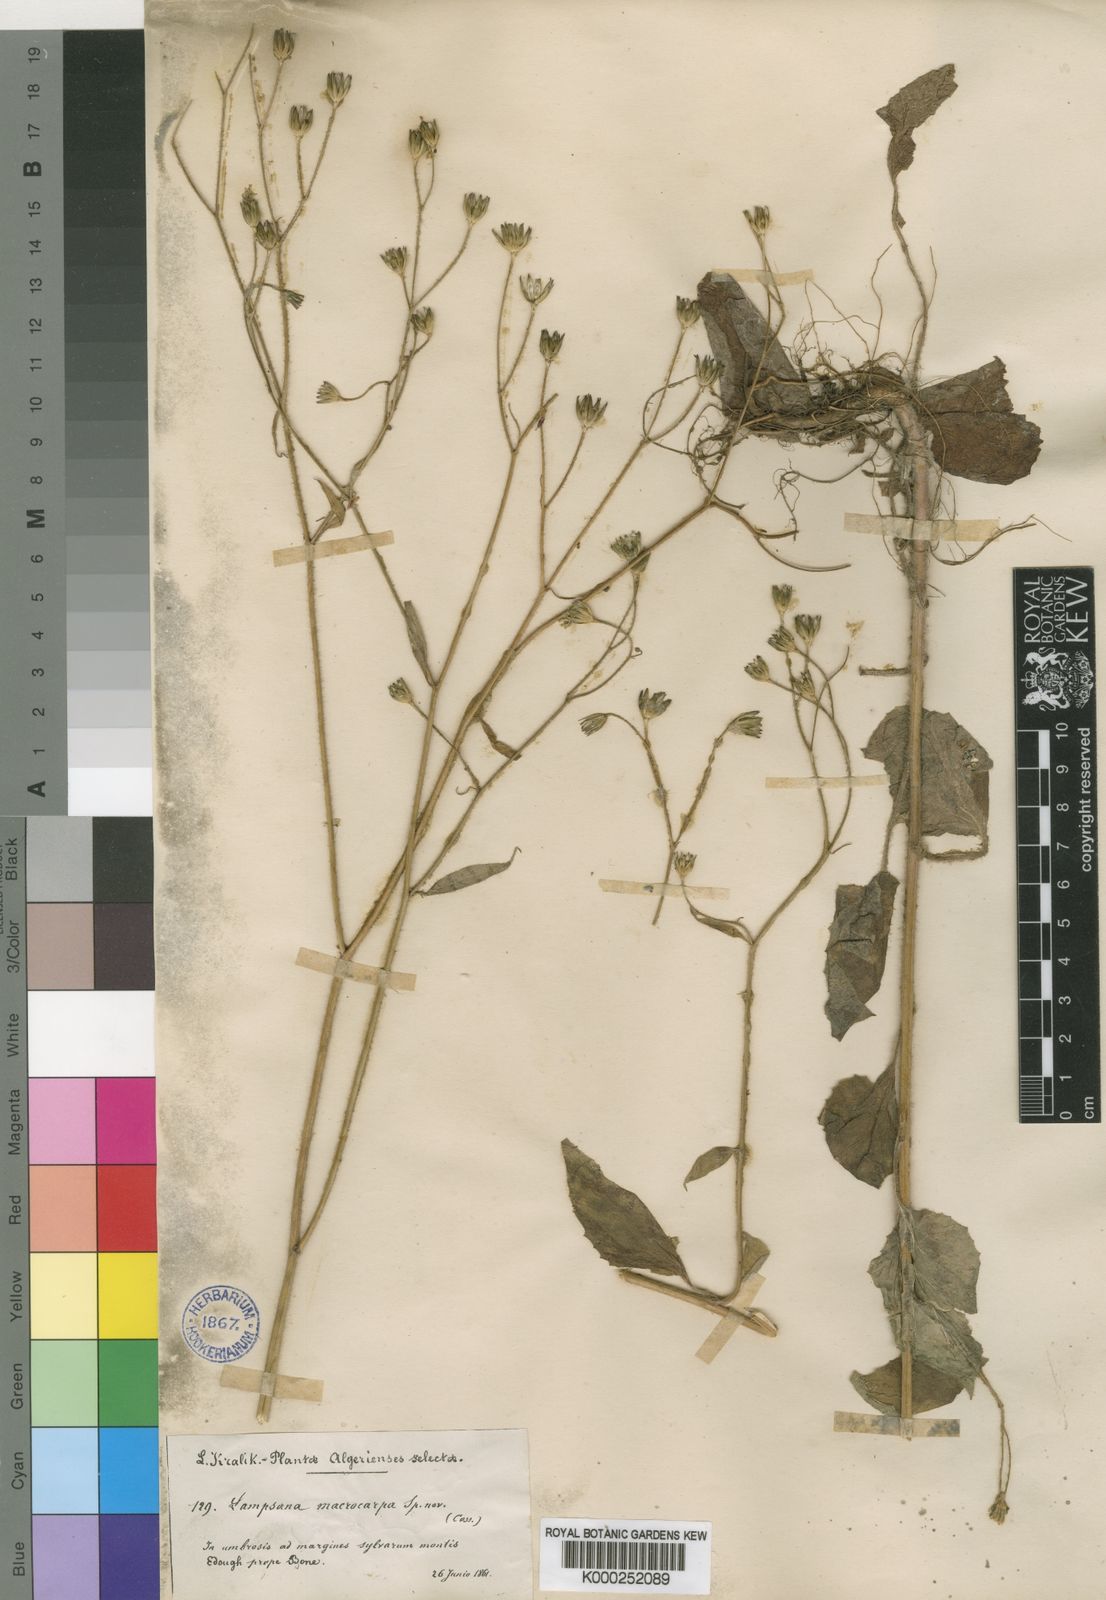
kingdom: Plantae
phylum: Tracheophyta
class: Magnoliopsida
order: Asterales
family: Asteraceae
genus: Lapsana
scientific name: Lapsana communis
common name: Nipplewort
